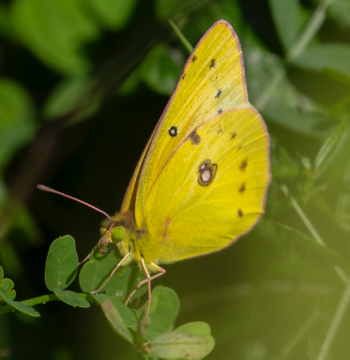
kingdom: Animalia
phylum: Arthropoda
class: Insecta
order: Lepidoptera
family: Pieridae
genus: Colias
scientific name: Colias eurytheme
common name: Orange Sulphur
